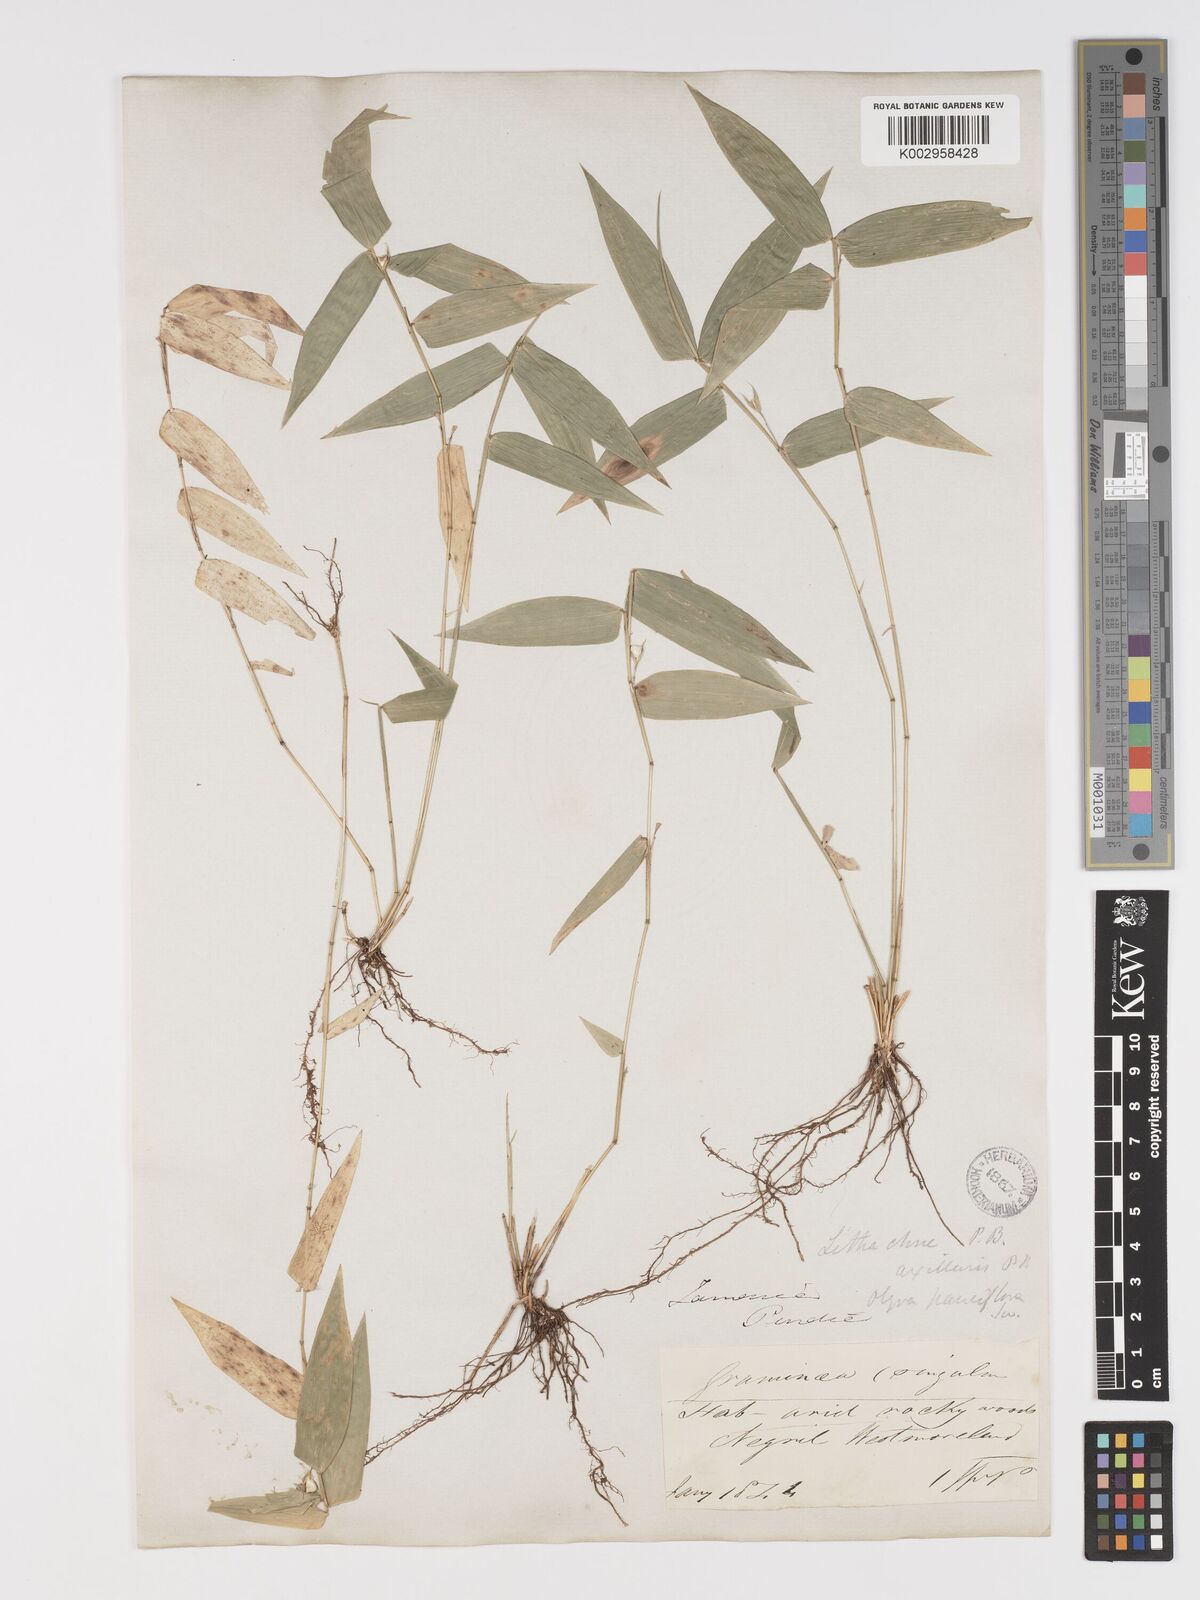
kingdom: Plantae
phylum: Tracheophyta
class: Liliopsida
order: Poales
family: Poaceae
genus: Lithachne
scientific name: Lithachne pauciflora
